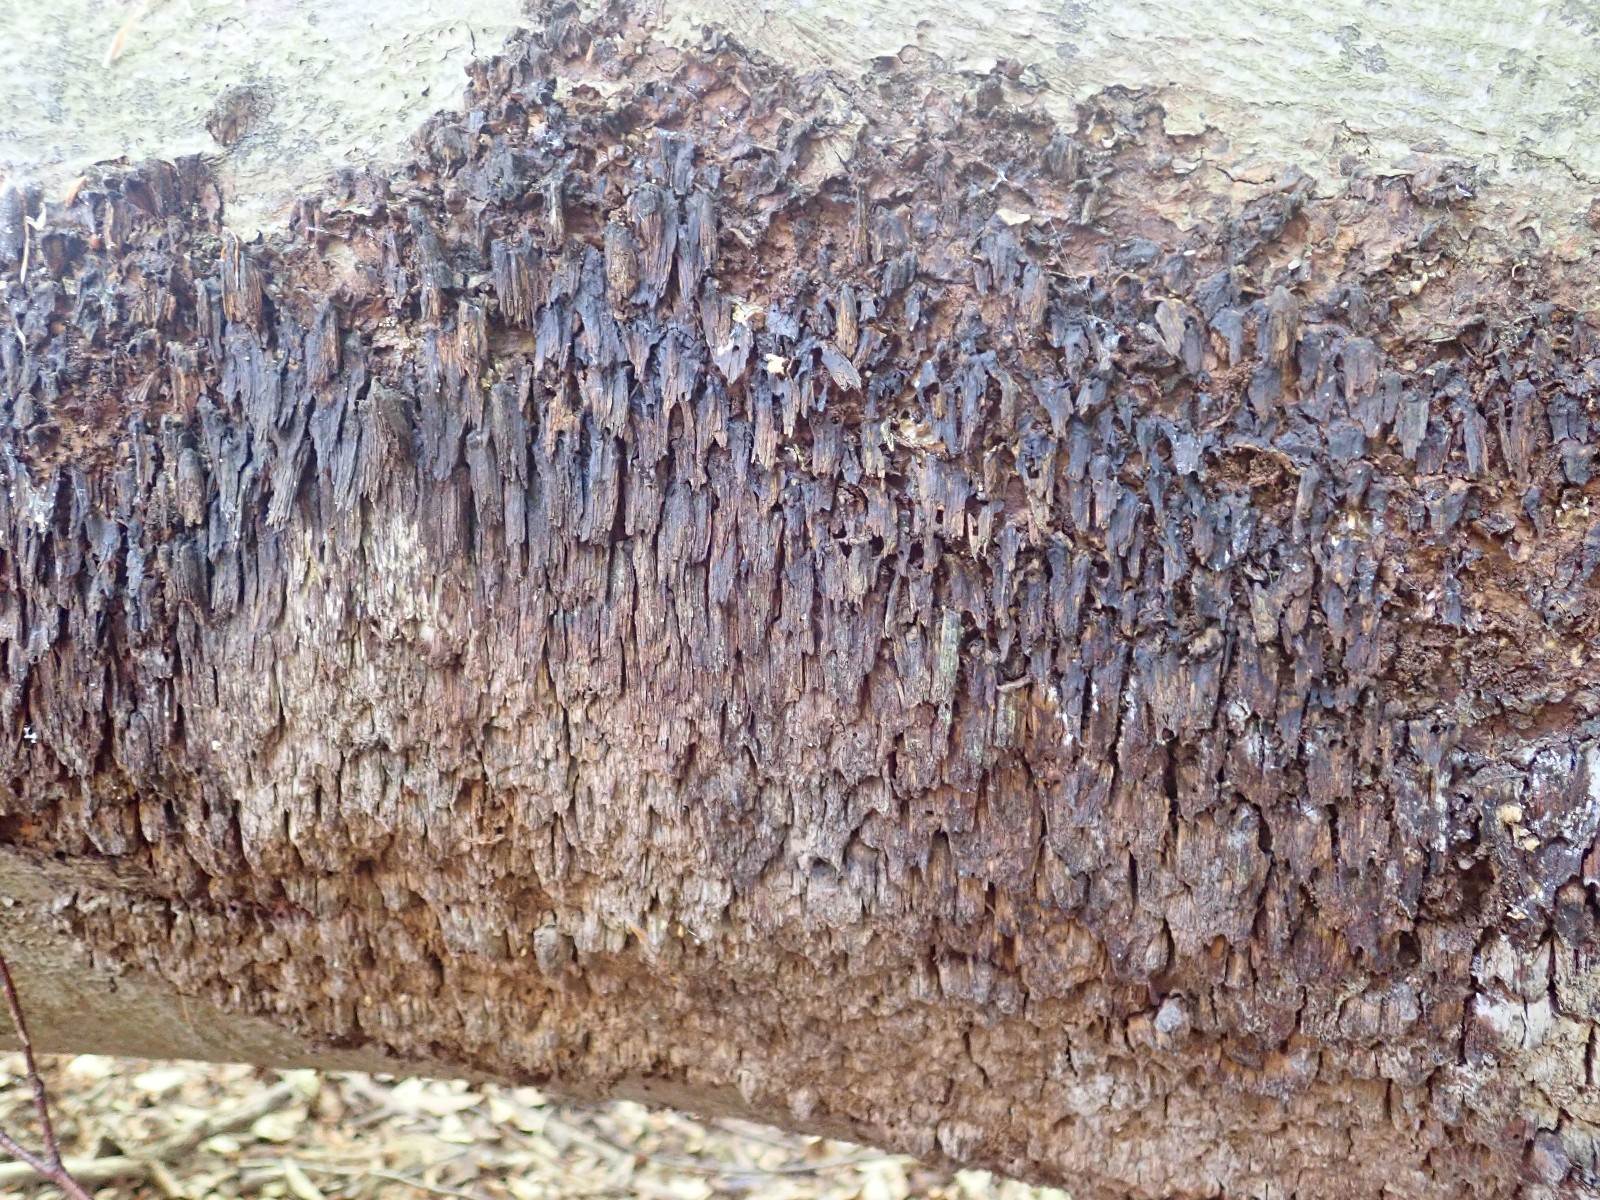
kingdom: Fungi
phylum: Basidiomycota
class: Agaricomycetes
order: Hymenochaetales
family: Hymenochaetaceae
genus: Mensularia
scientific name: Mensularia nodulosa
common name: bøge-spejlporesvamp
